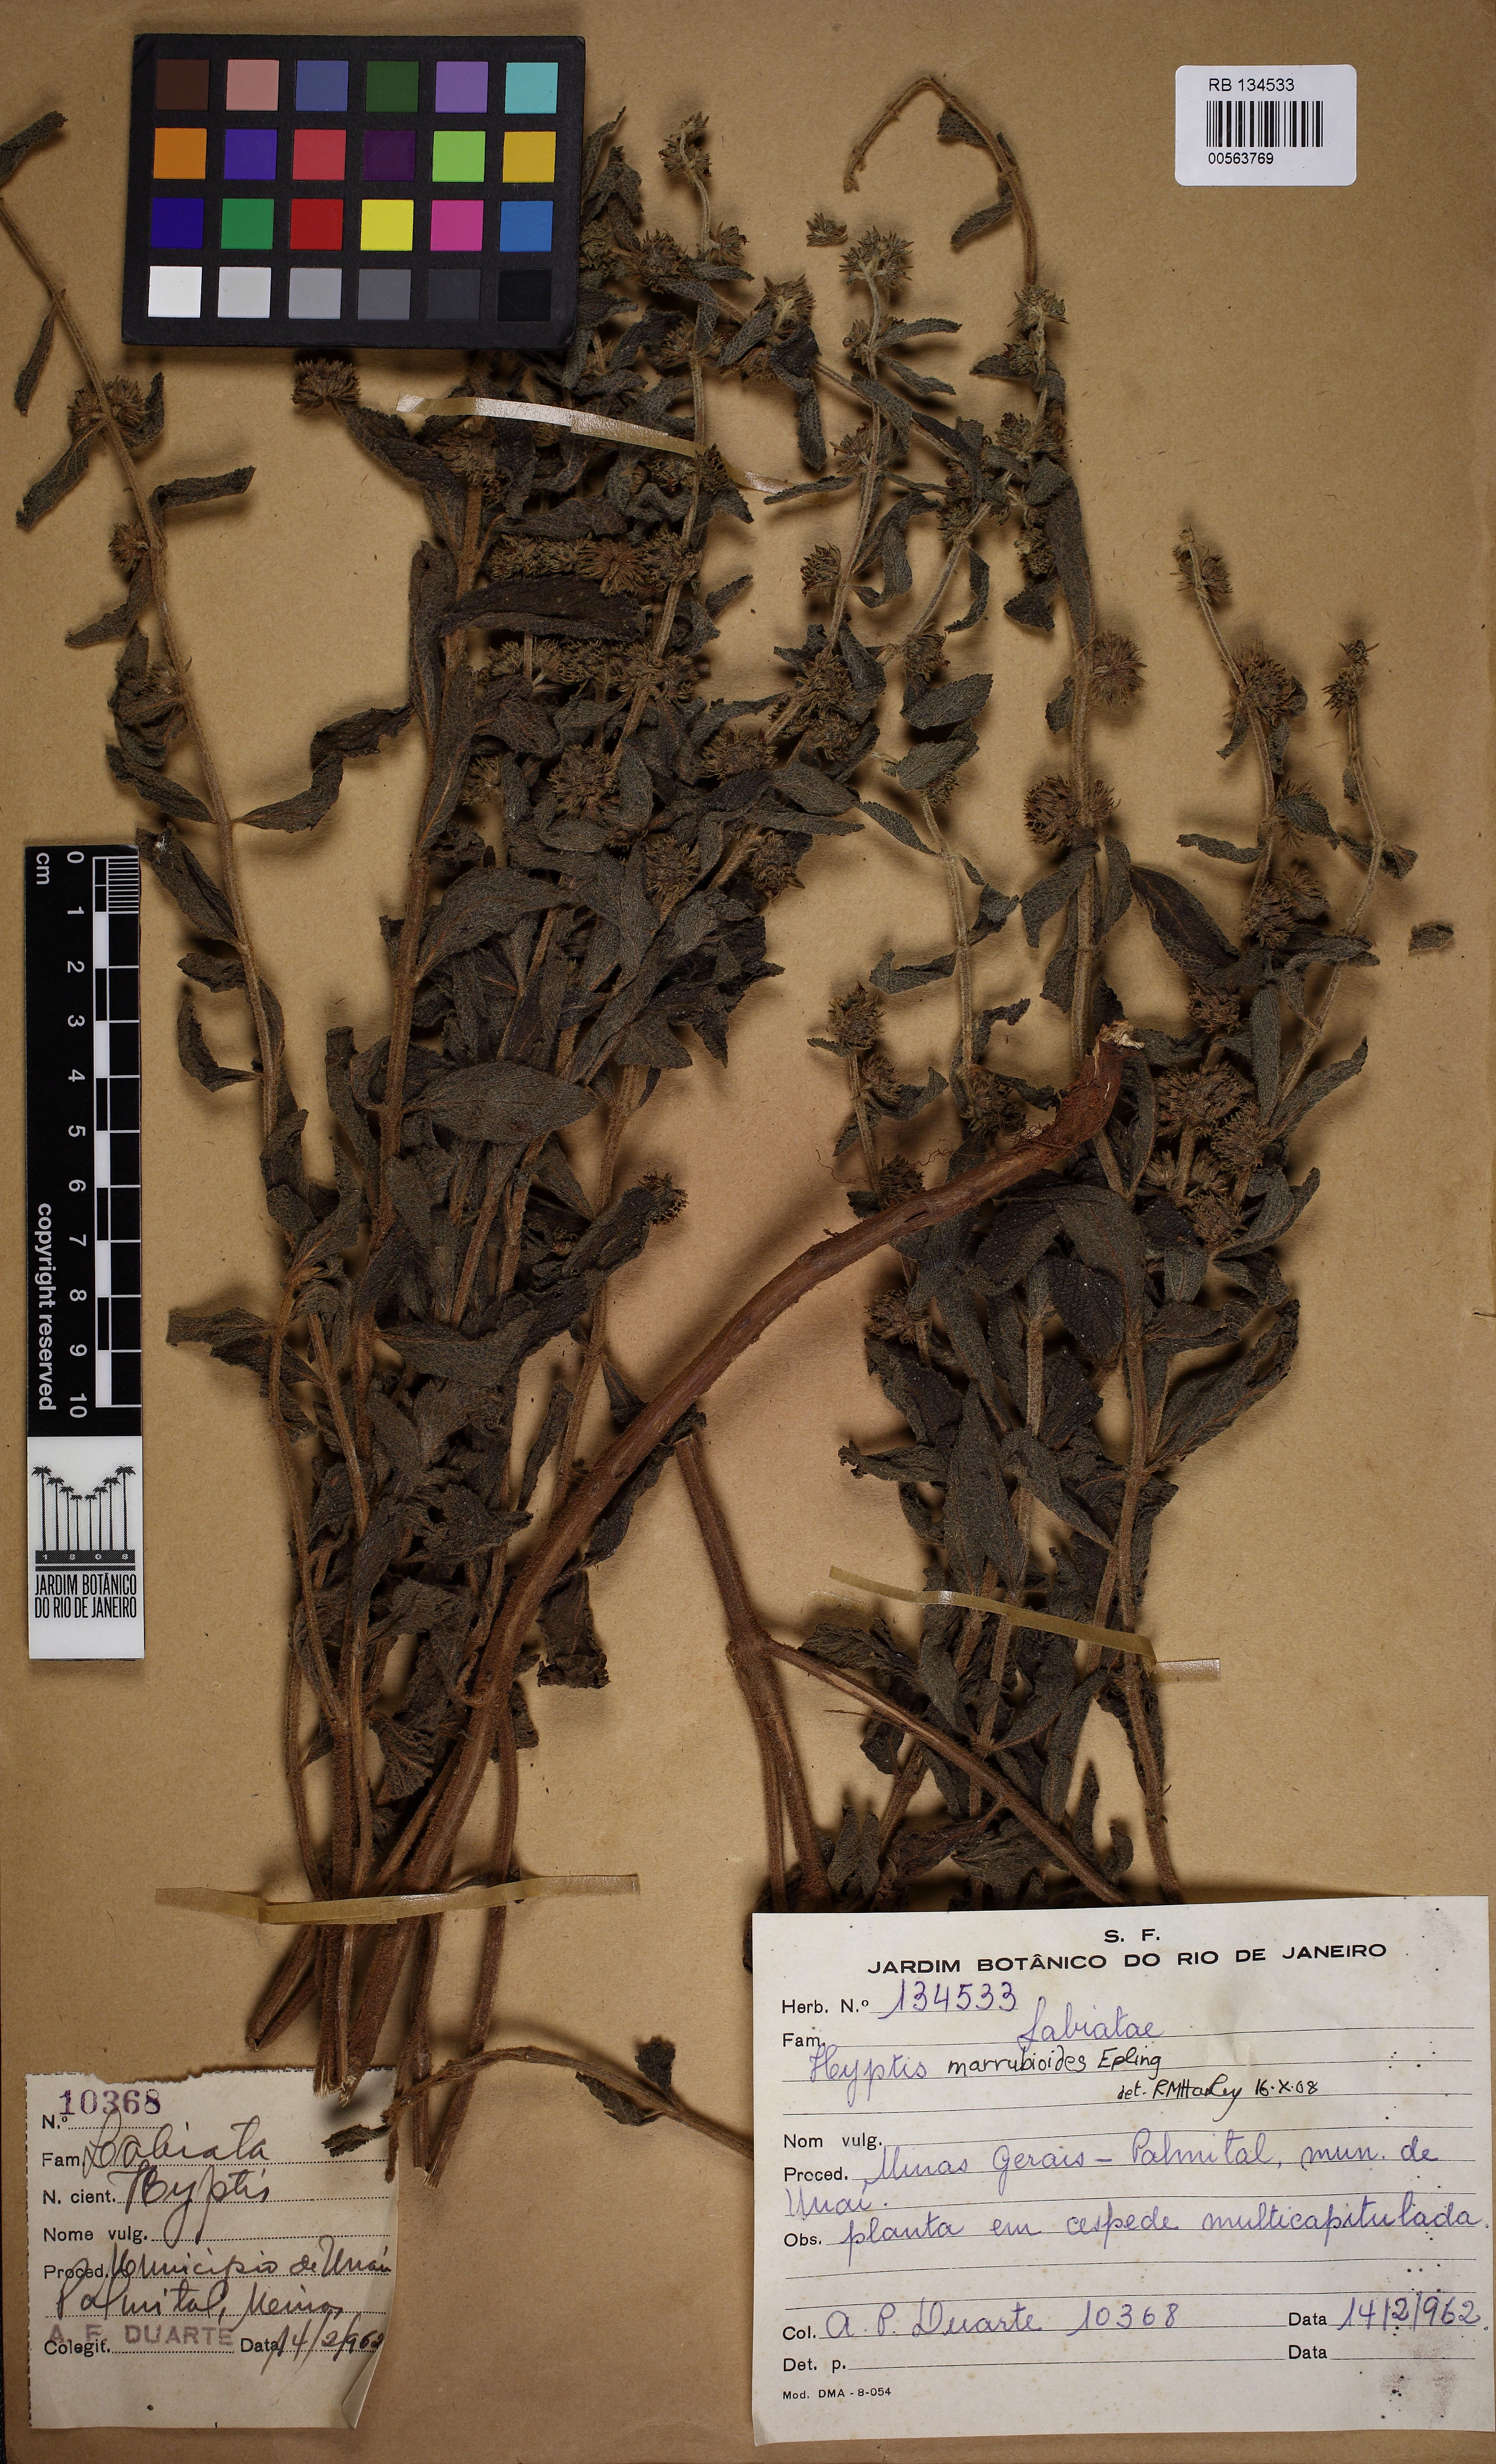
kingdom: Plantae
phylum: Tracheophyta
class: Magnoliopsida
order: Lamiales
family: Lamiaceae
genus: Hyptis
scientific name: Hyptis marrubioides
